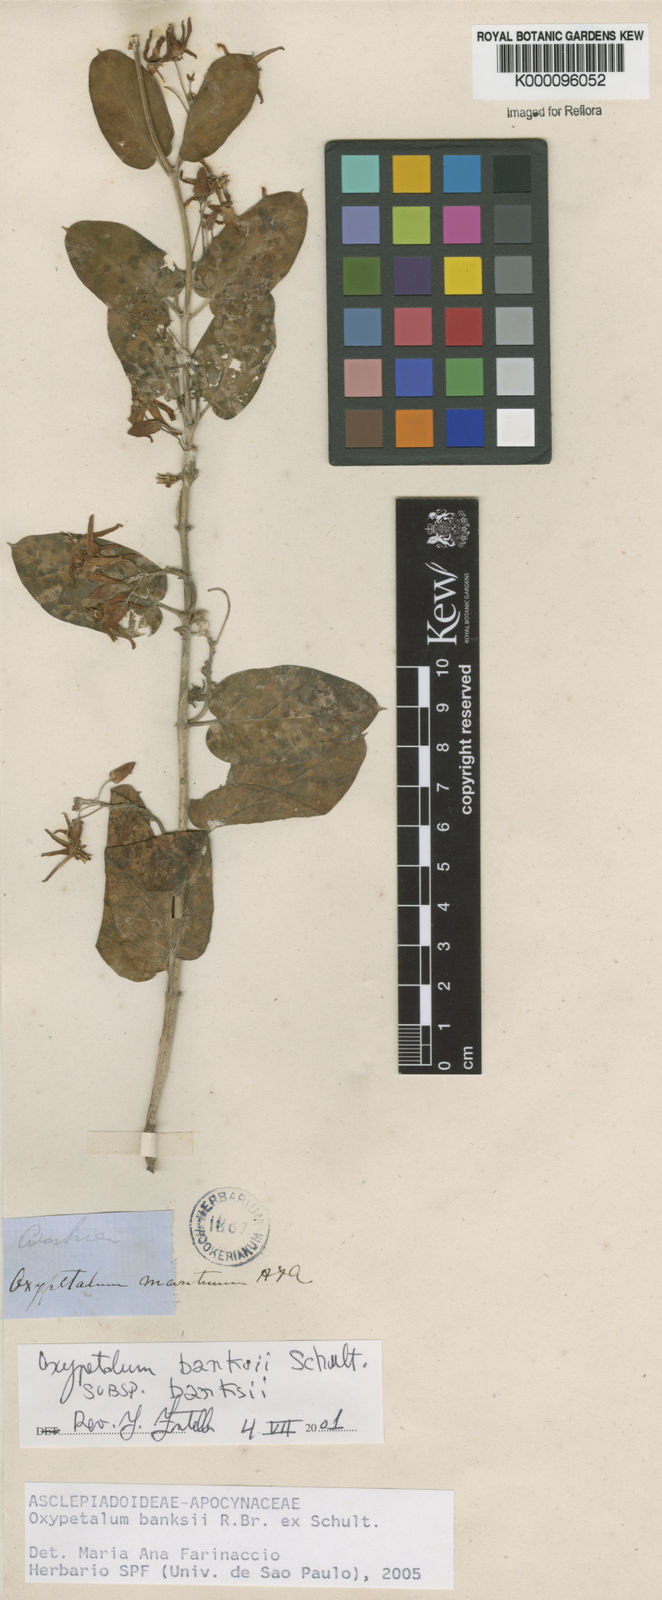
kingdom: Plantae
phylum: Tracheophyta
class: Magnoliopsida
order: Gentianales
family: Apocynaceae
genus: Oxypetalum
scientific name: Oxypetalum banksii
